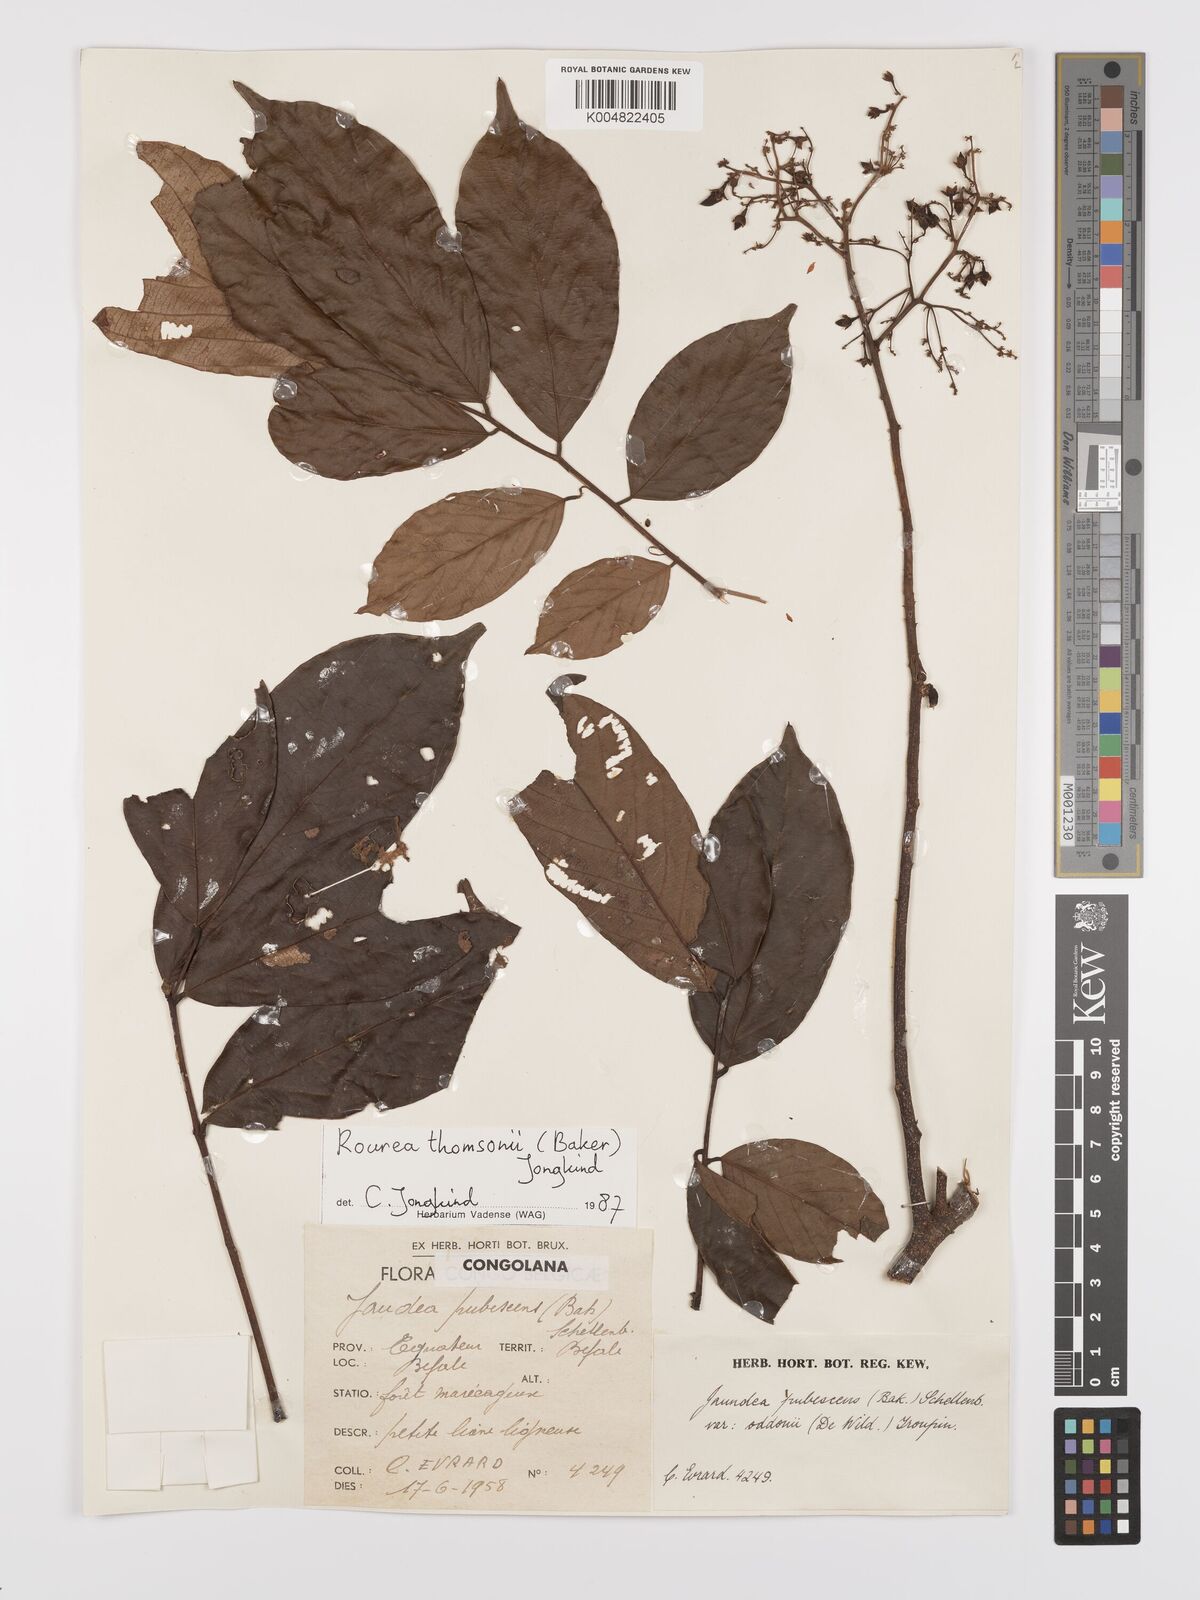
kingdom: Plantae
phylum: Tracheophyta
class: Magnoliopsida
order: Oxalidales
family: Connaraceae
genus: Rourea
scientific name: Rourea pubescens
